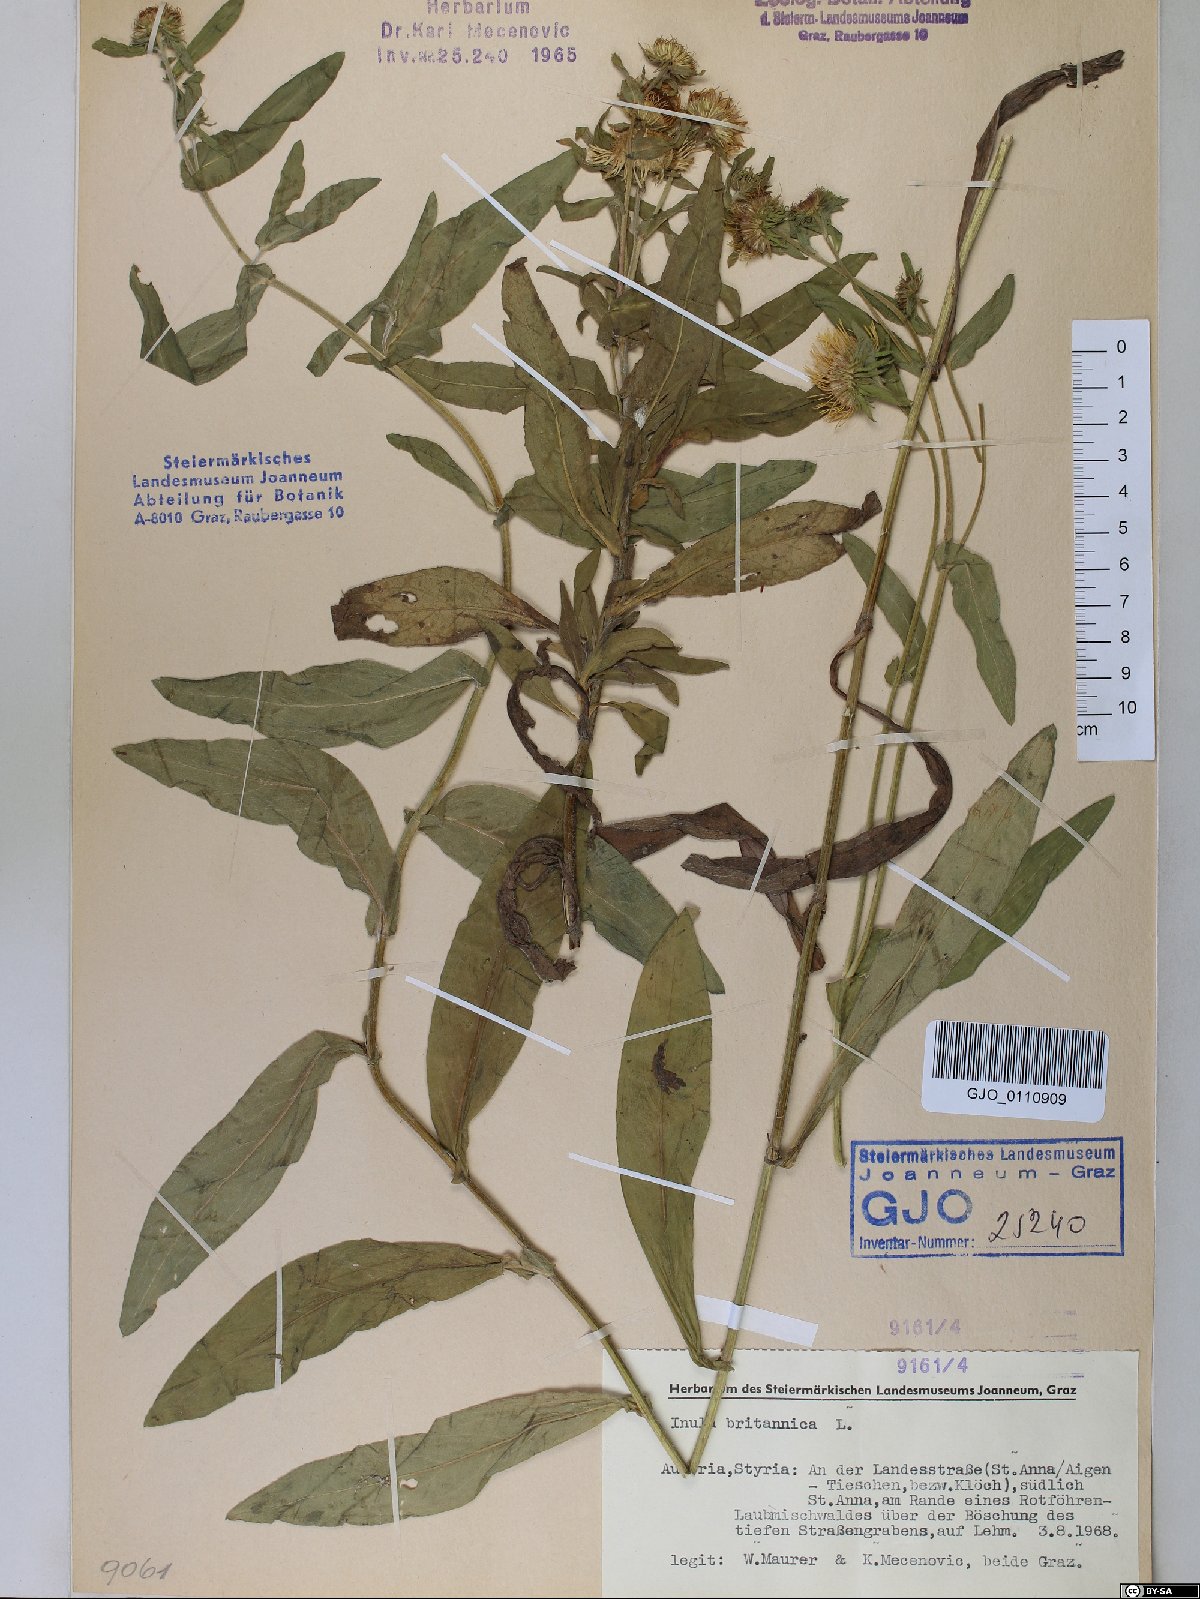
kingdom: Plantae
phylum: Tracheophyta
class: Magnoliopsida
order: Asterales
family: Asteraceae
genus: Pentanema
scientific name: Pentanema britannicum
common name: British elecampane
